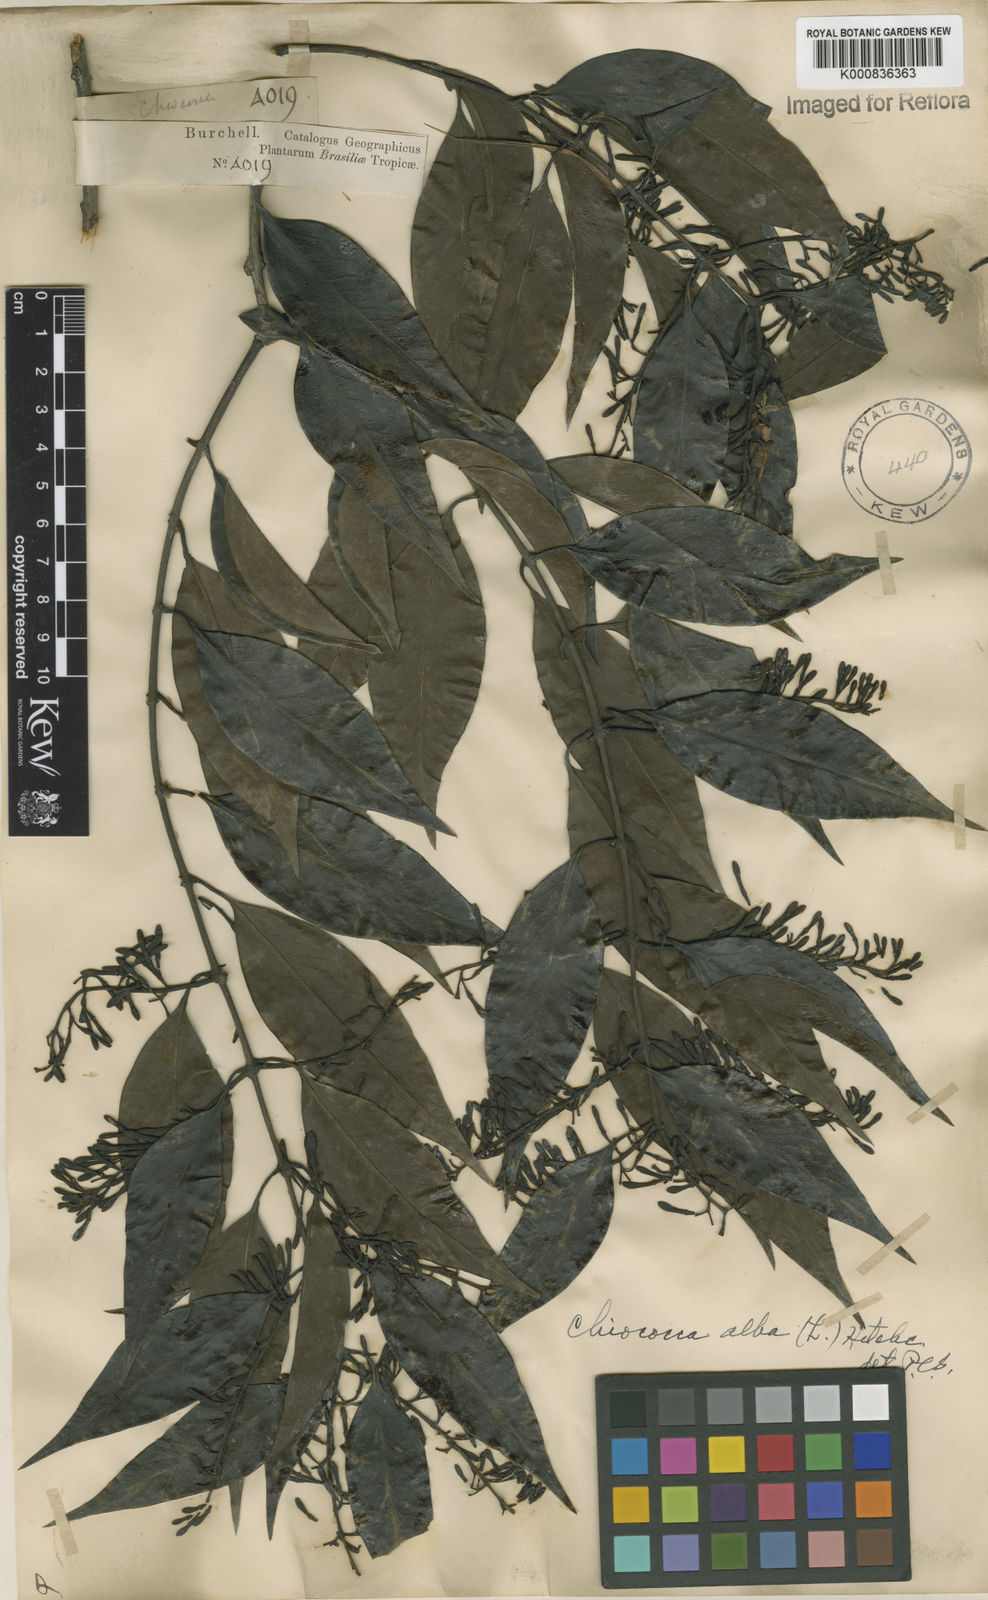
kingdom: Plantae
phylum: Tracheophyta
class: Magnoliopsida
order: Gentianales
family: Rubiaceae
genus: Chiococca
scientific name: Chiococca alba
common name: Snowberry
